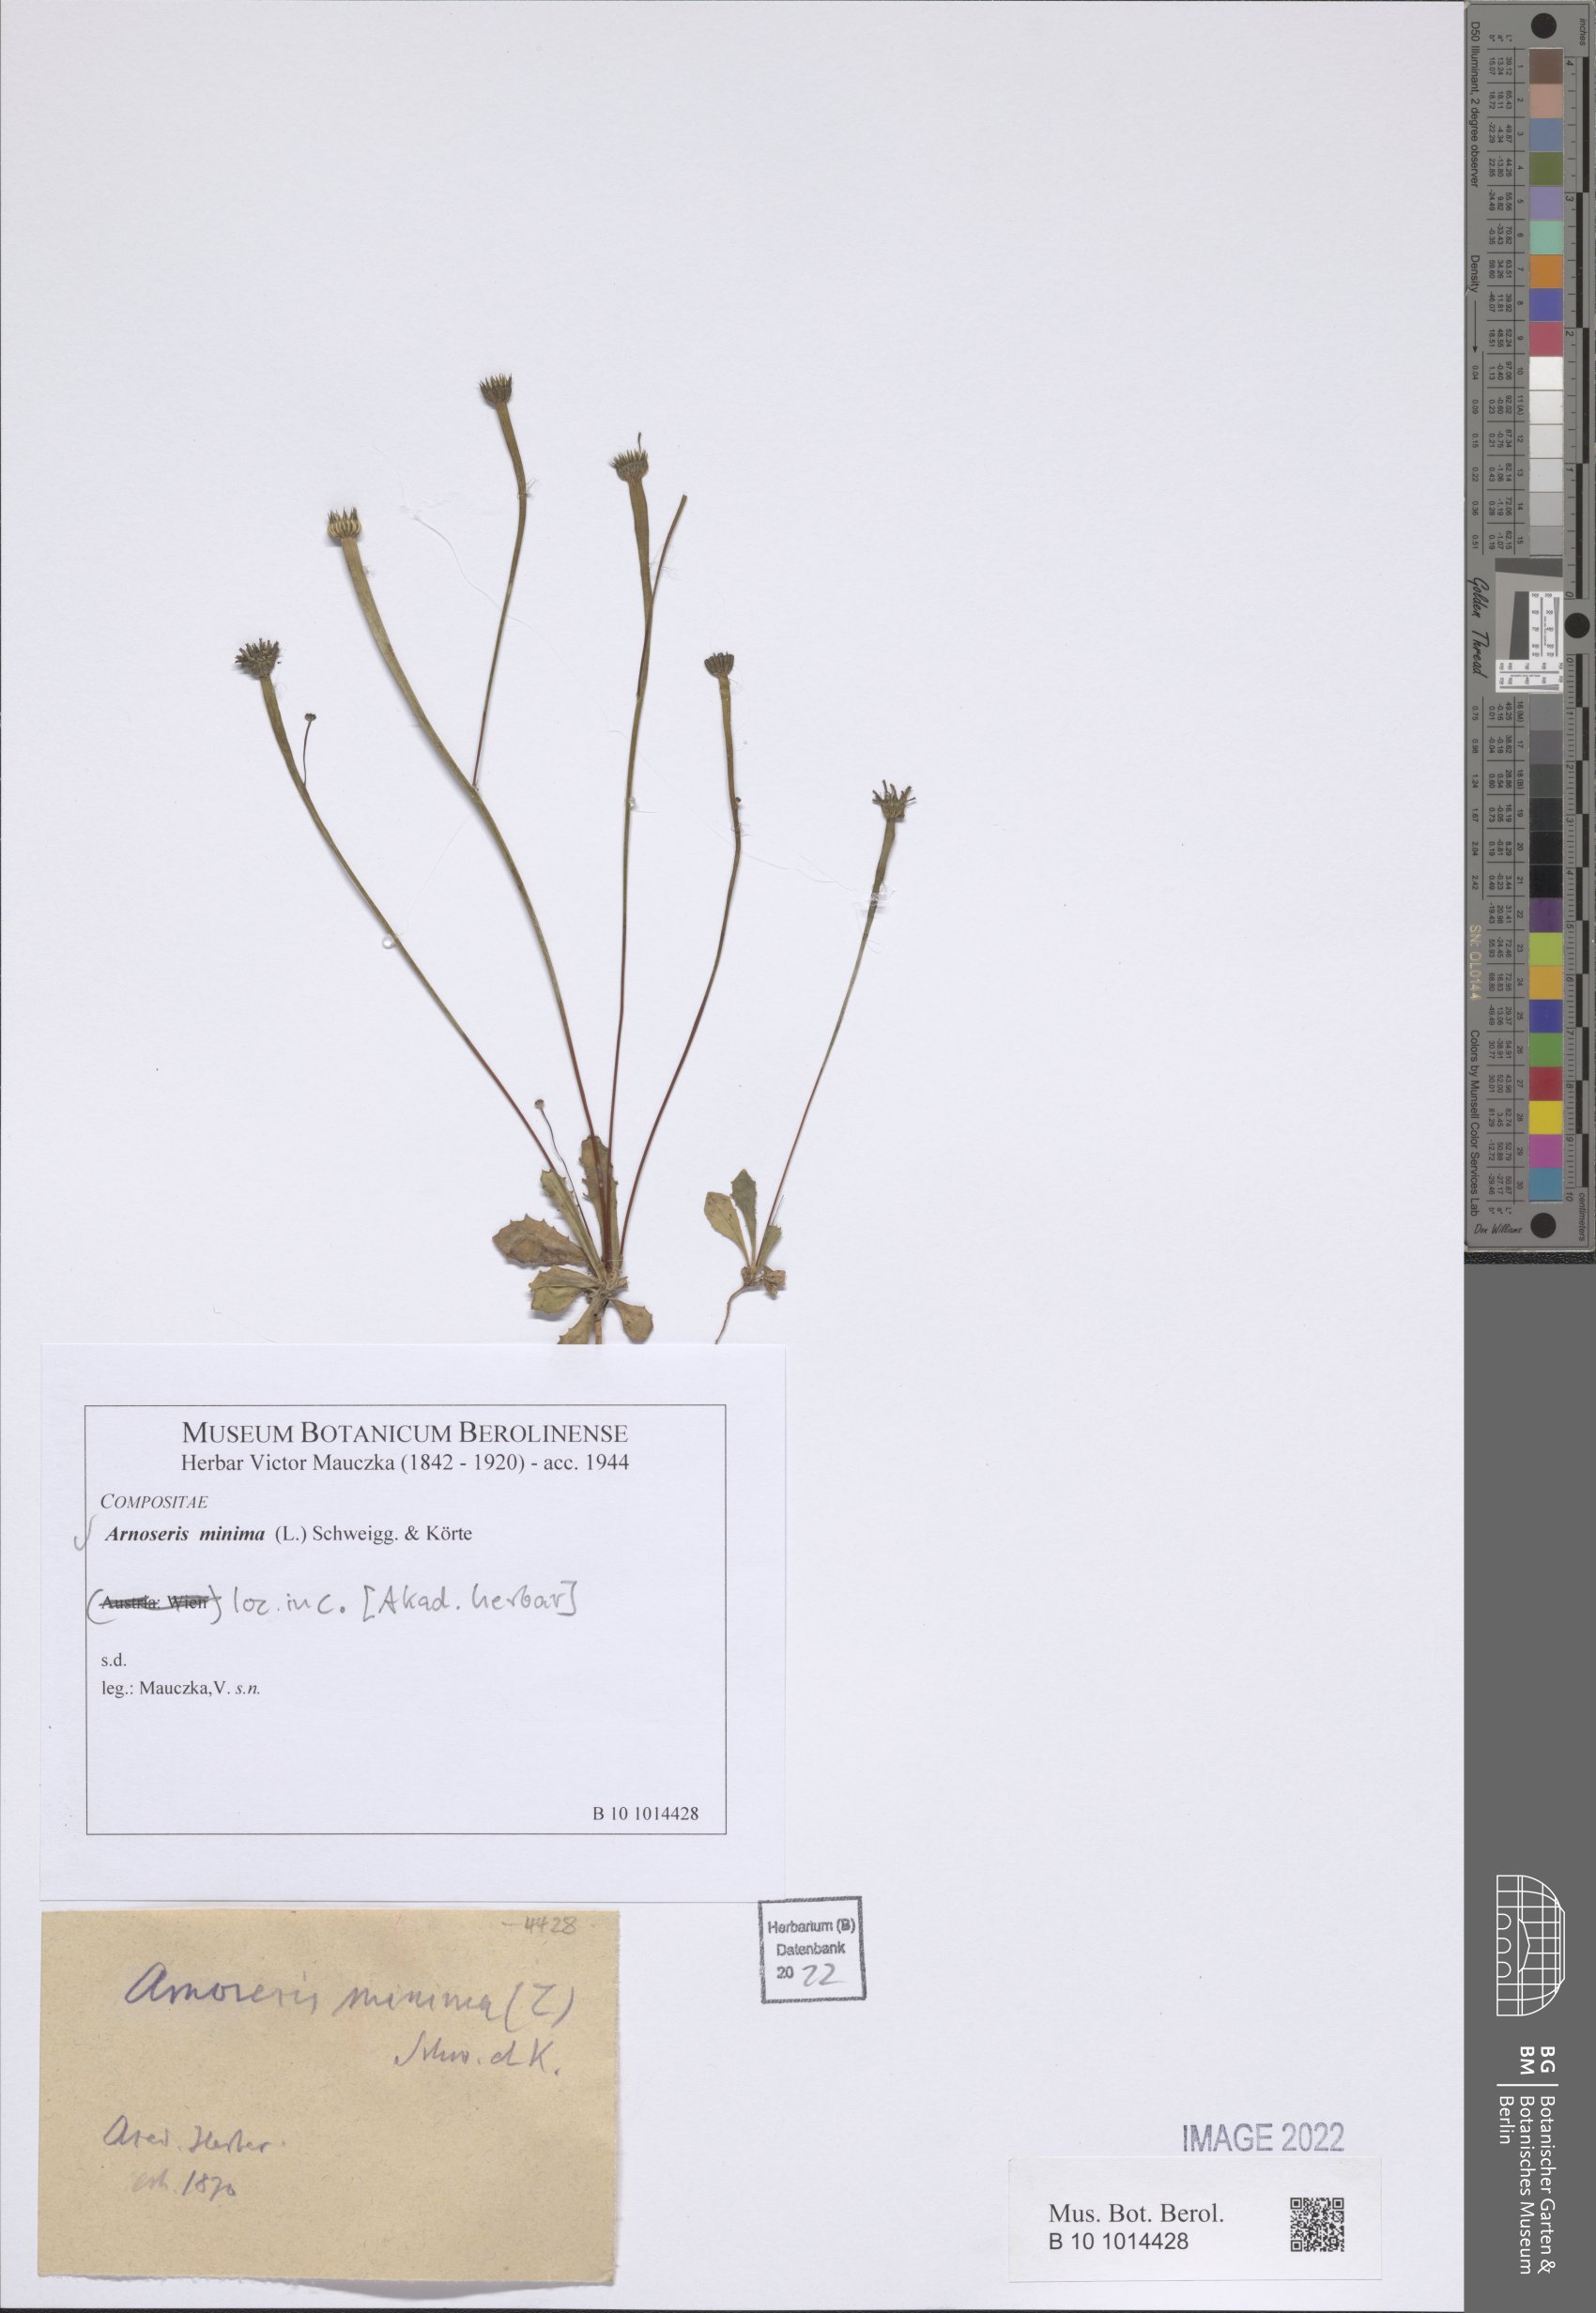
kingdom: Plantae
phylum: Tracheophyta
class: Magnoliopsida
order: Asterales
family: Asteraceae
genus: Arnoseris
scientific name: Arnoseris minima
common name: Lamb's succory
